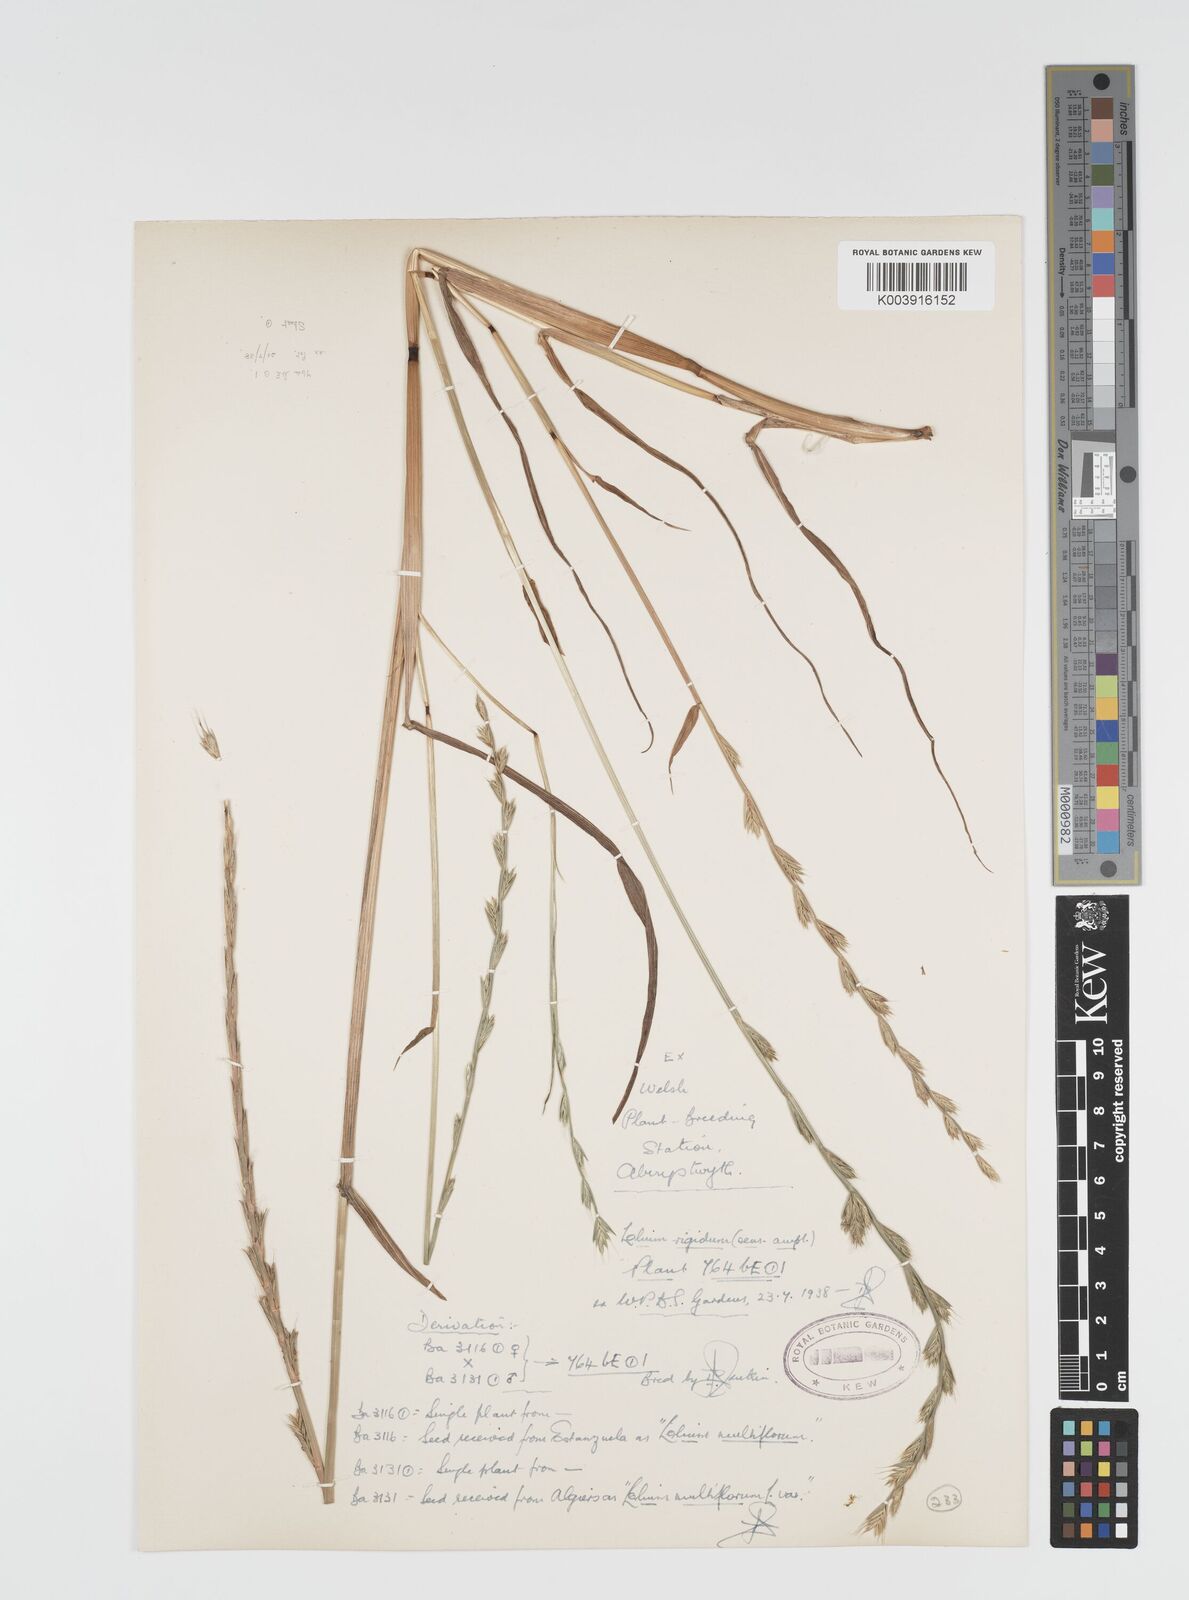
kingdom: Plantae
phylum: Tracheophyta
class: Liliopsida
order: Poales
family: Poaceae
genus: Lolium
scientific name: Lolium rigidum
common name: Wimmera ryegrass
